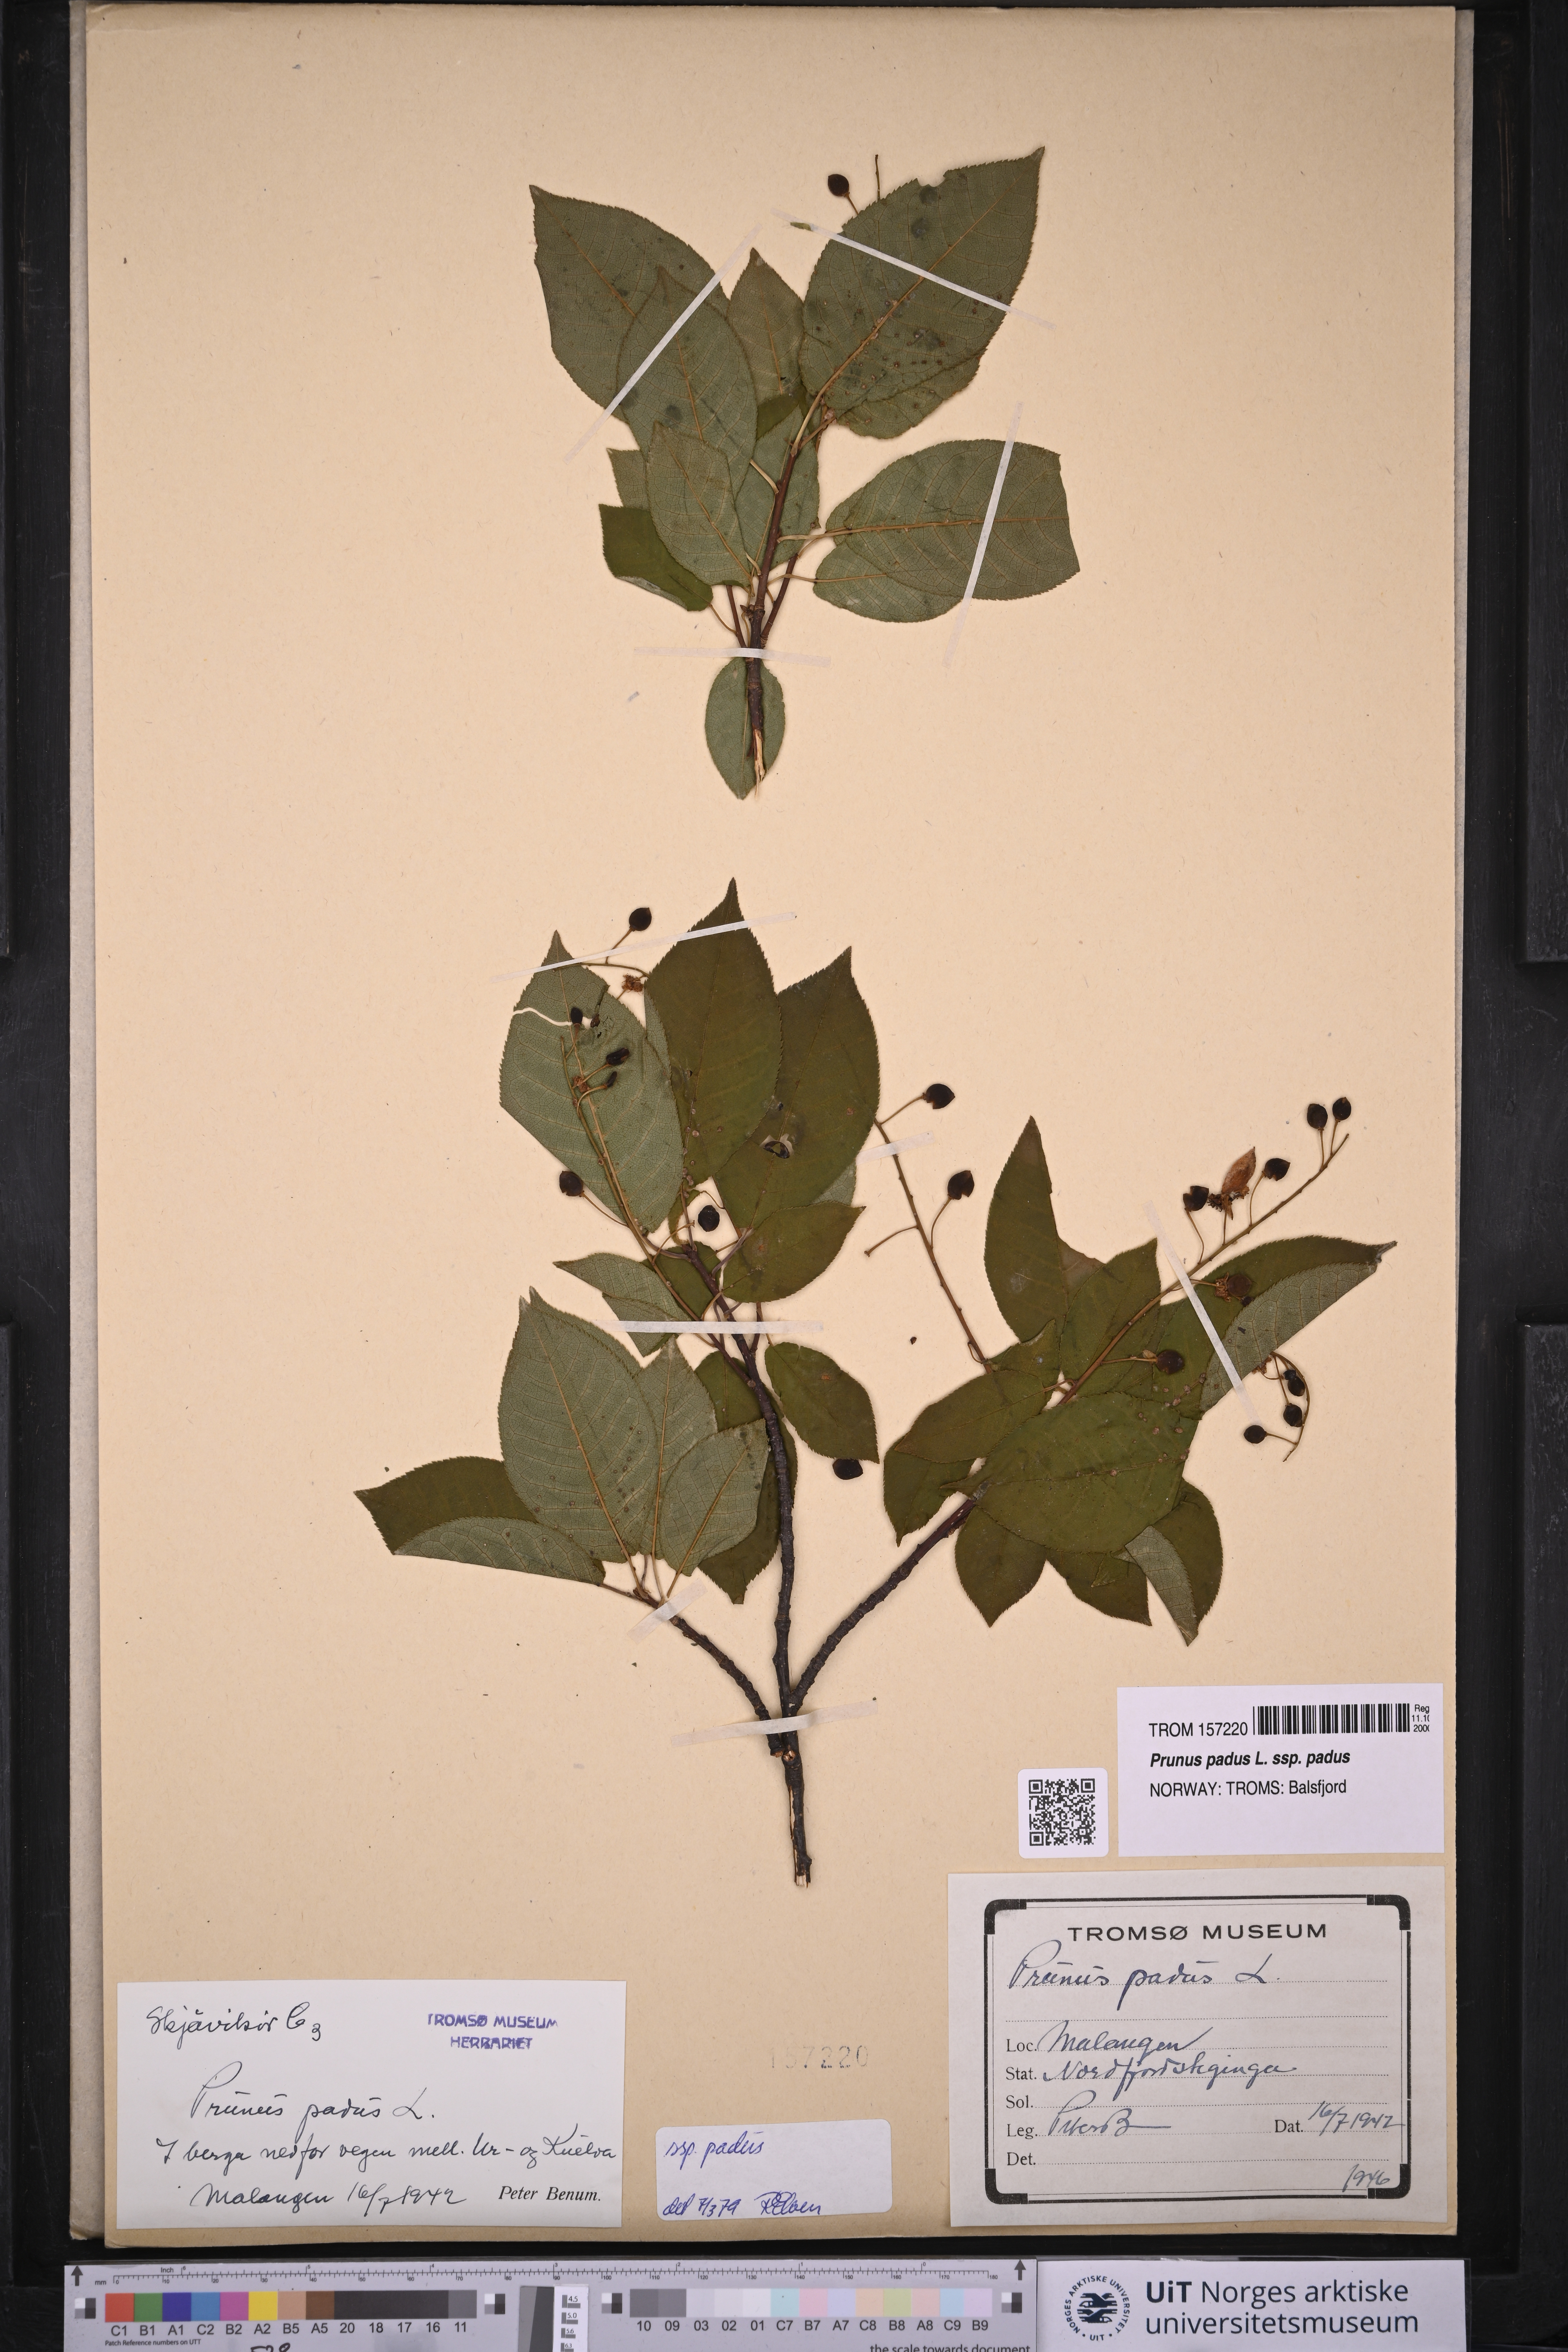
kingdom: Plantae
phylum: Tracheophyta
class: Magnoliopsida
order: Rosales
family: Rosaceae
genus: Prunus
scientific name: Prunus padus
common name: Bird cherry
